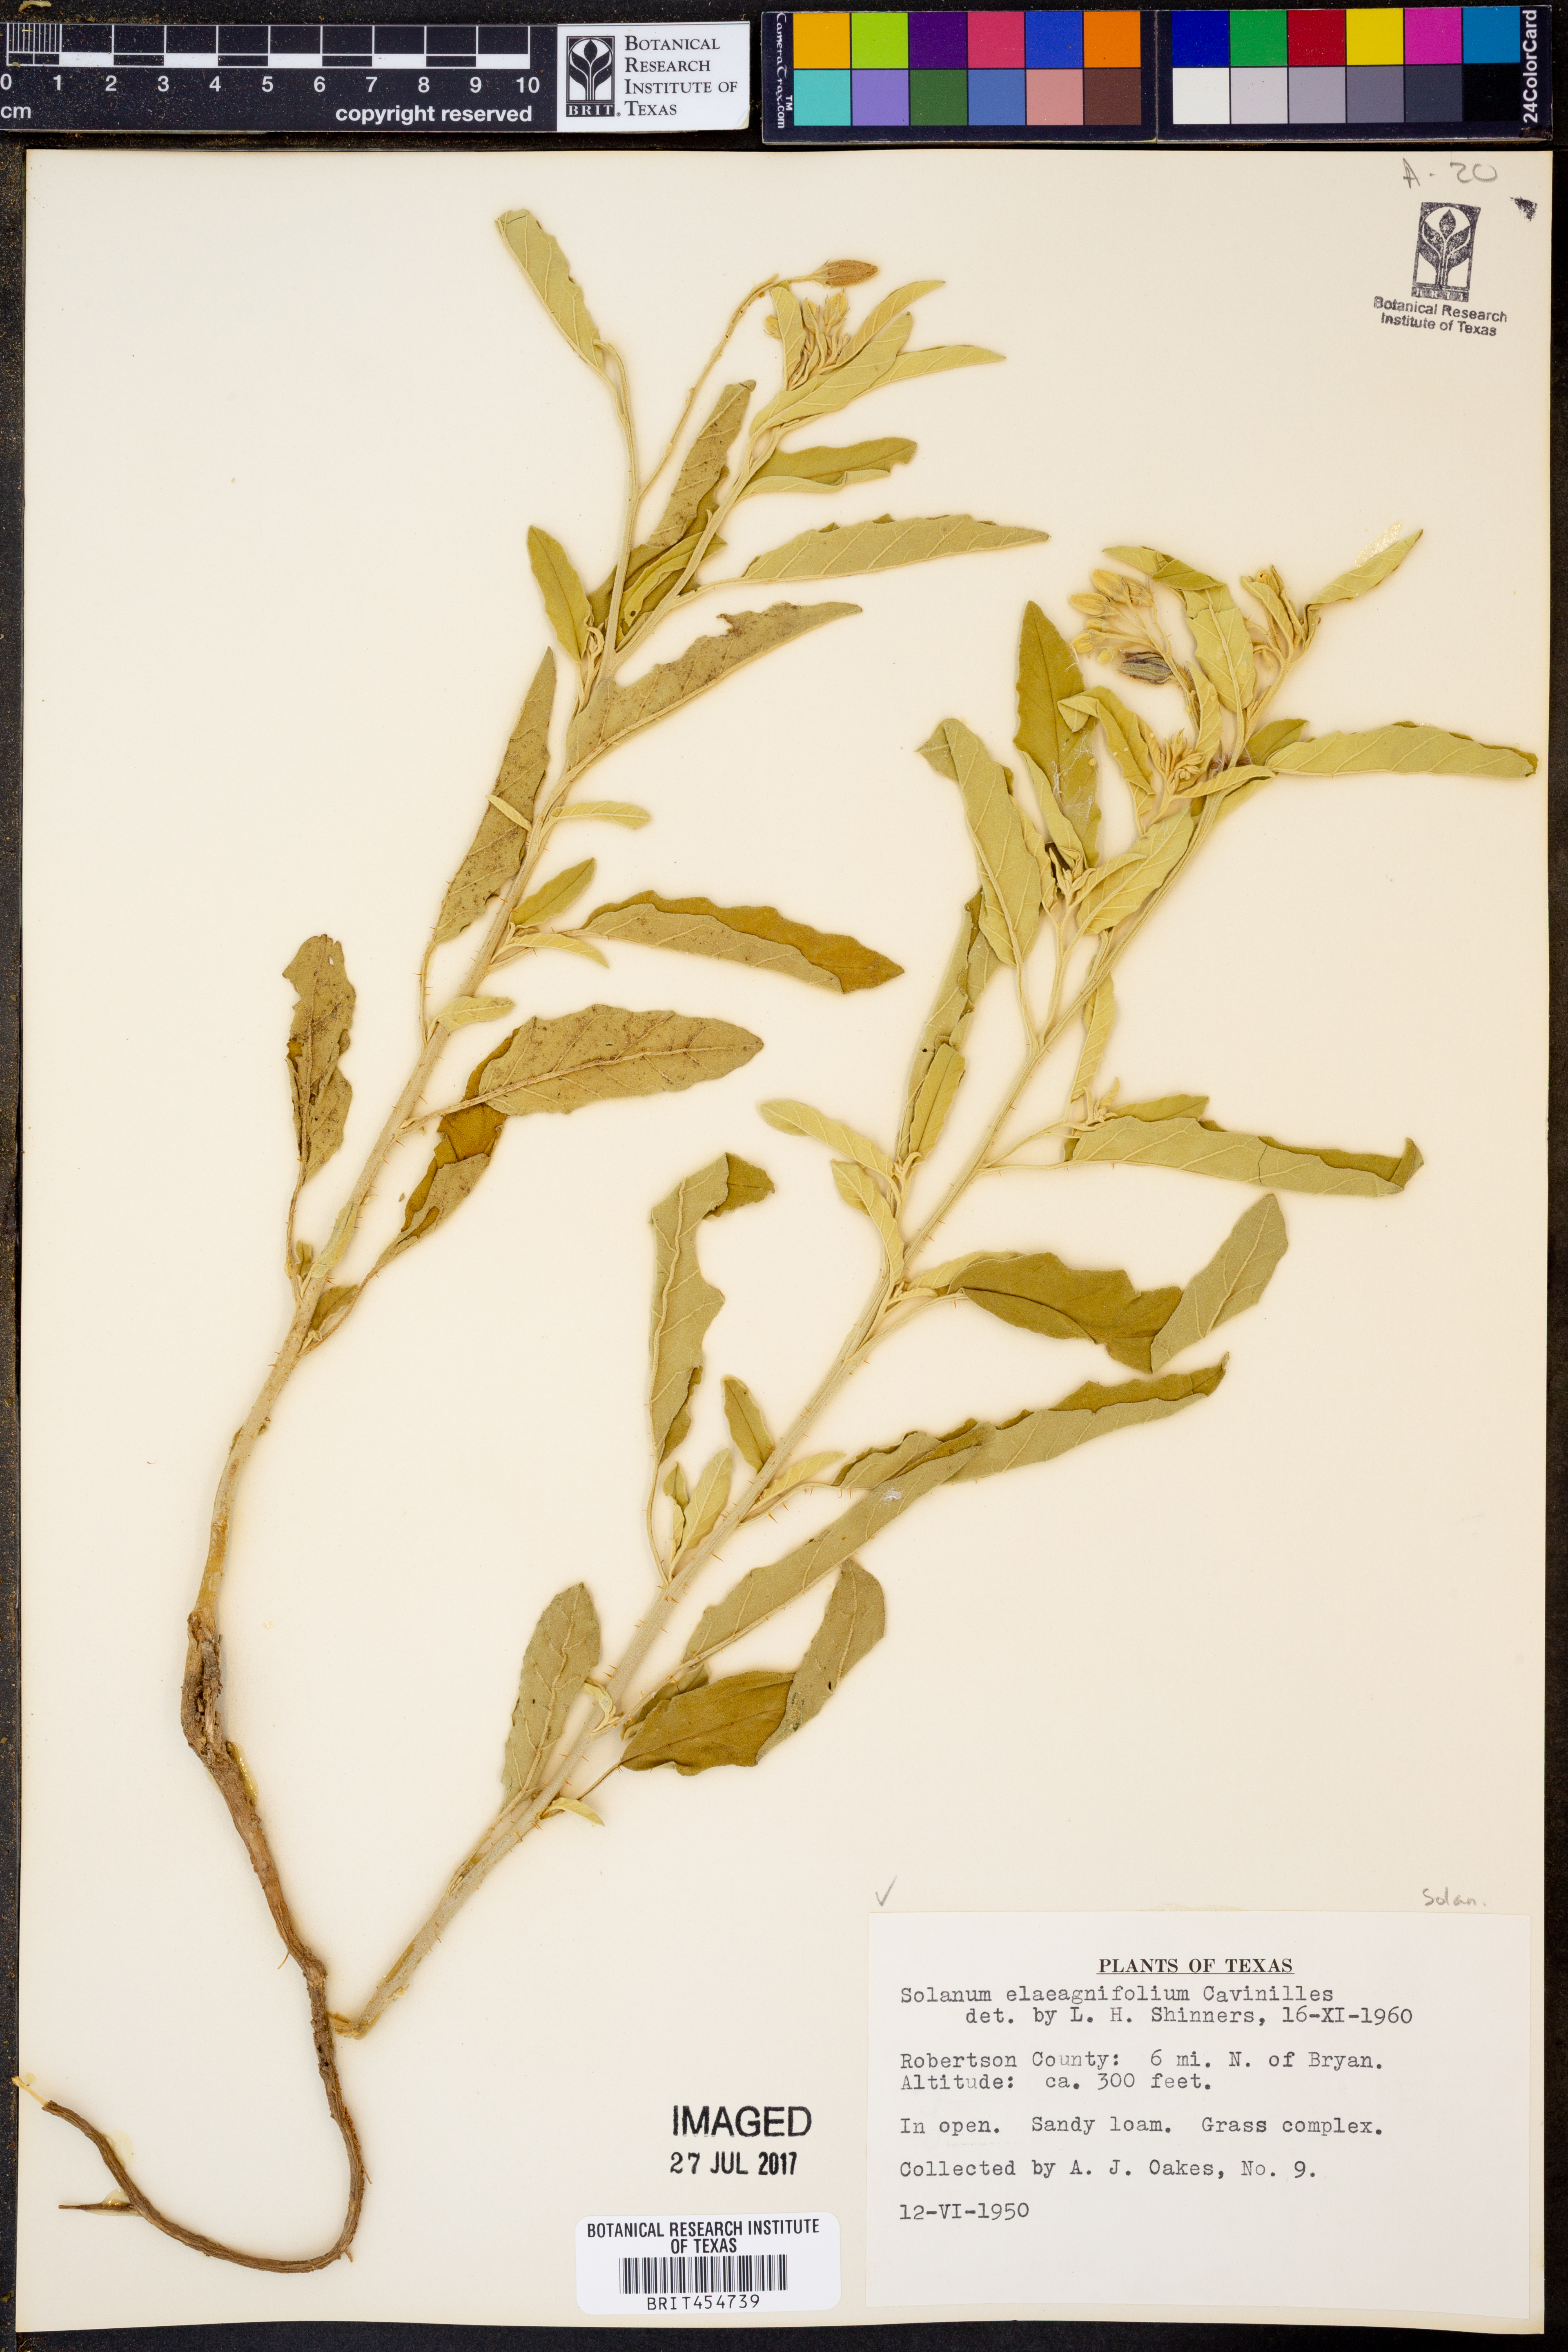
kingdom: Plantae
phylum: Tracheophyta
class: Magnoliopsida
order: Solanales
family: Solanaceae
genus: Solanum
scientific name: Solanum elaeagnifolium
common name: Silverleaf nightshade
